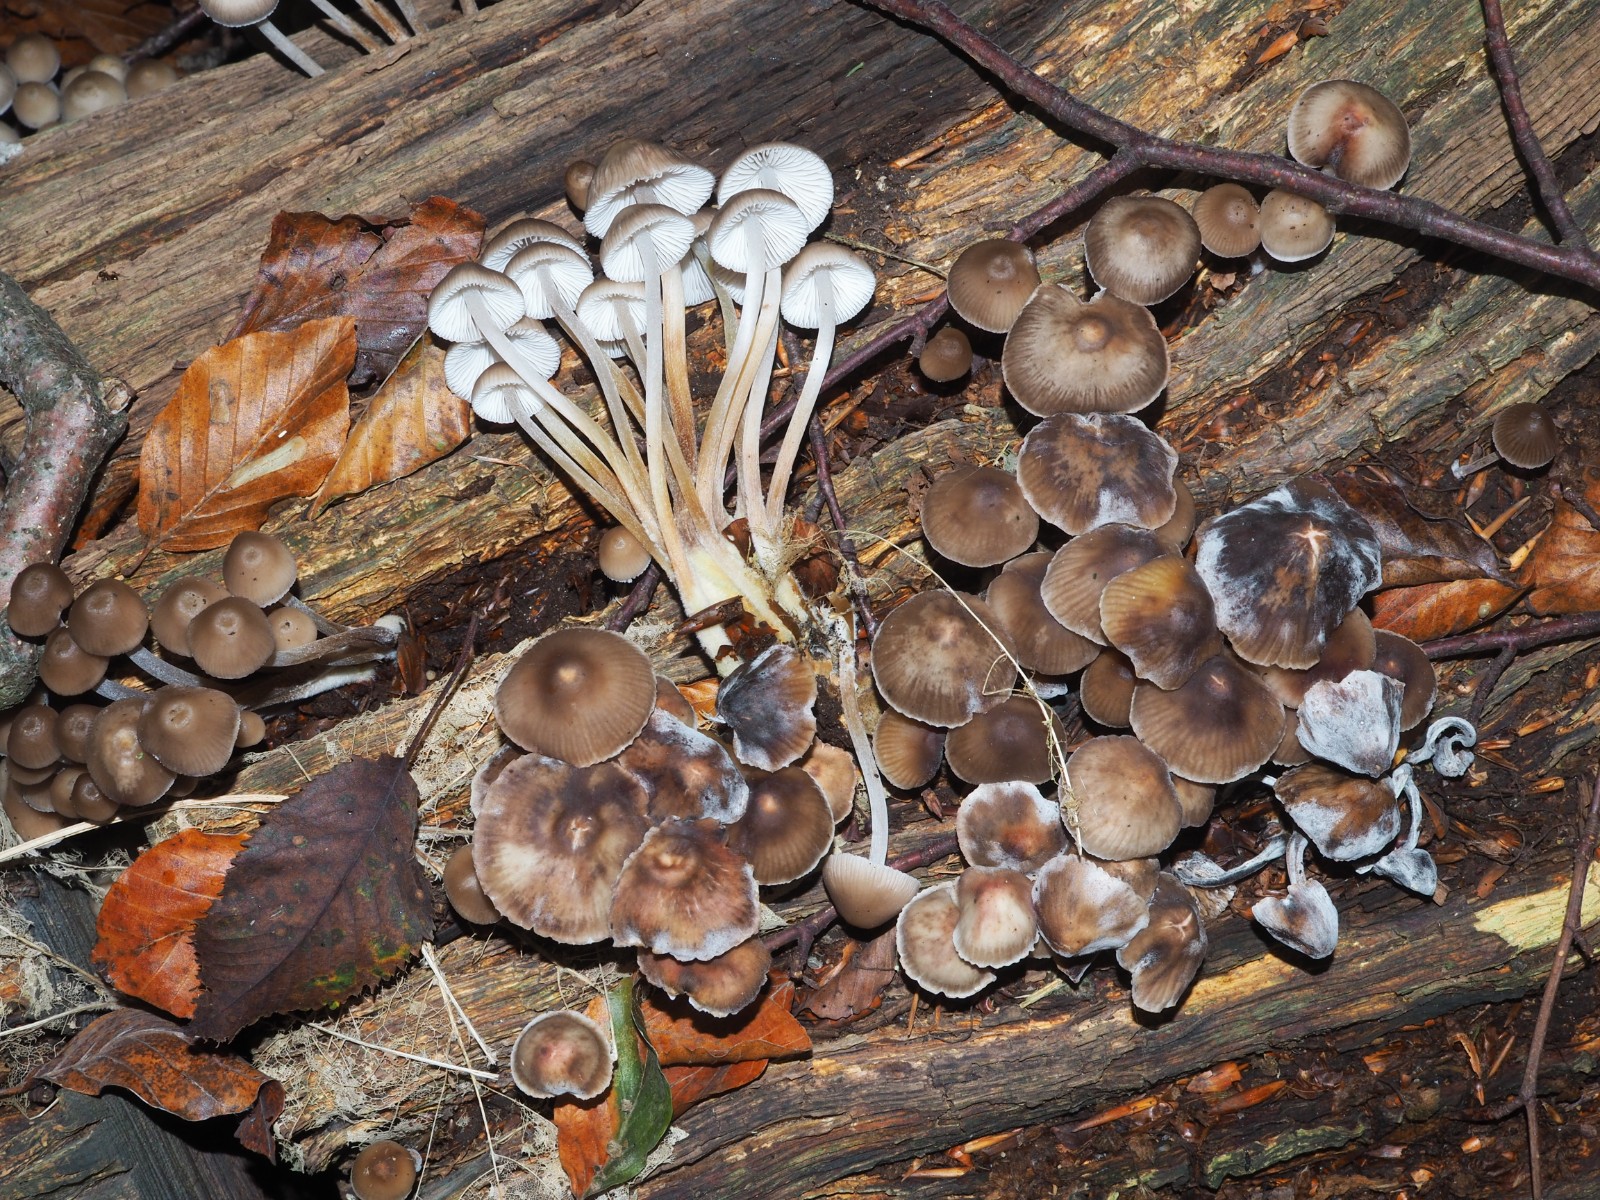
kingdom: Fungi
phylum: Basidiomycota
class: Agaricomycetes
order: Agaricales
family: Mycenaceae
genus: Mycena
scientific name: Mycena inclinata
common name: nikkende huesvamp
